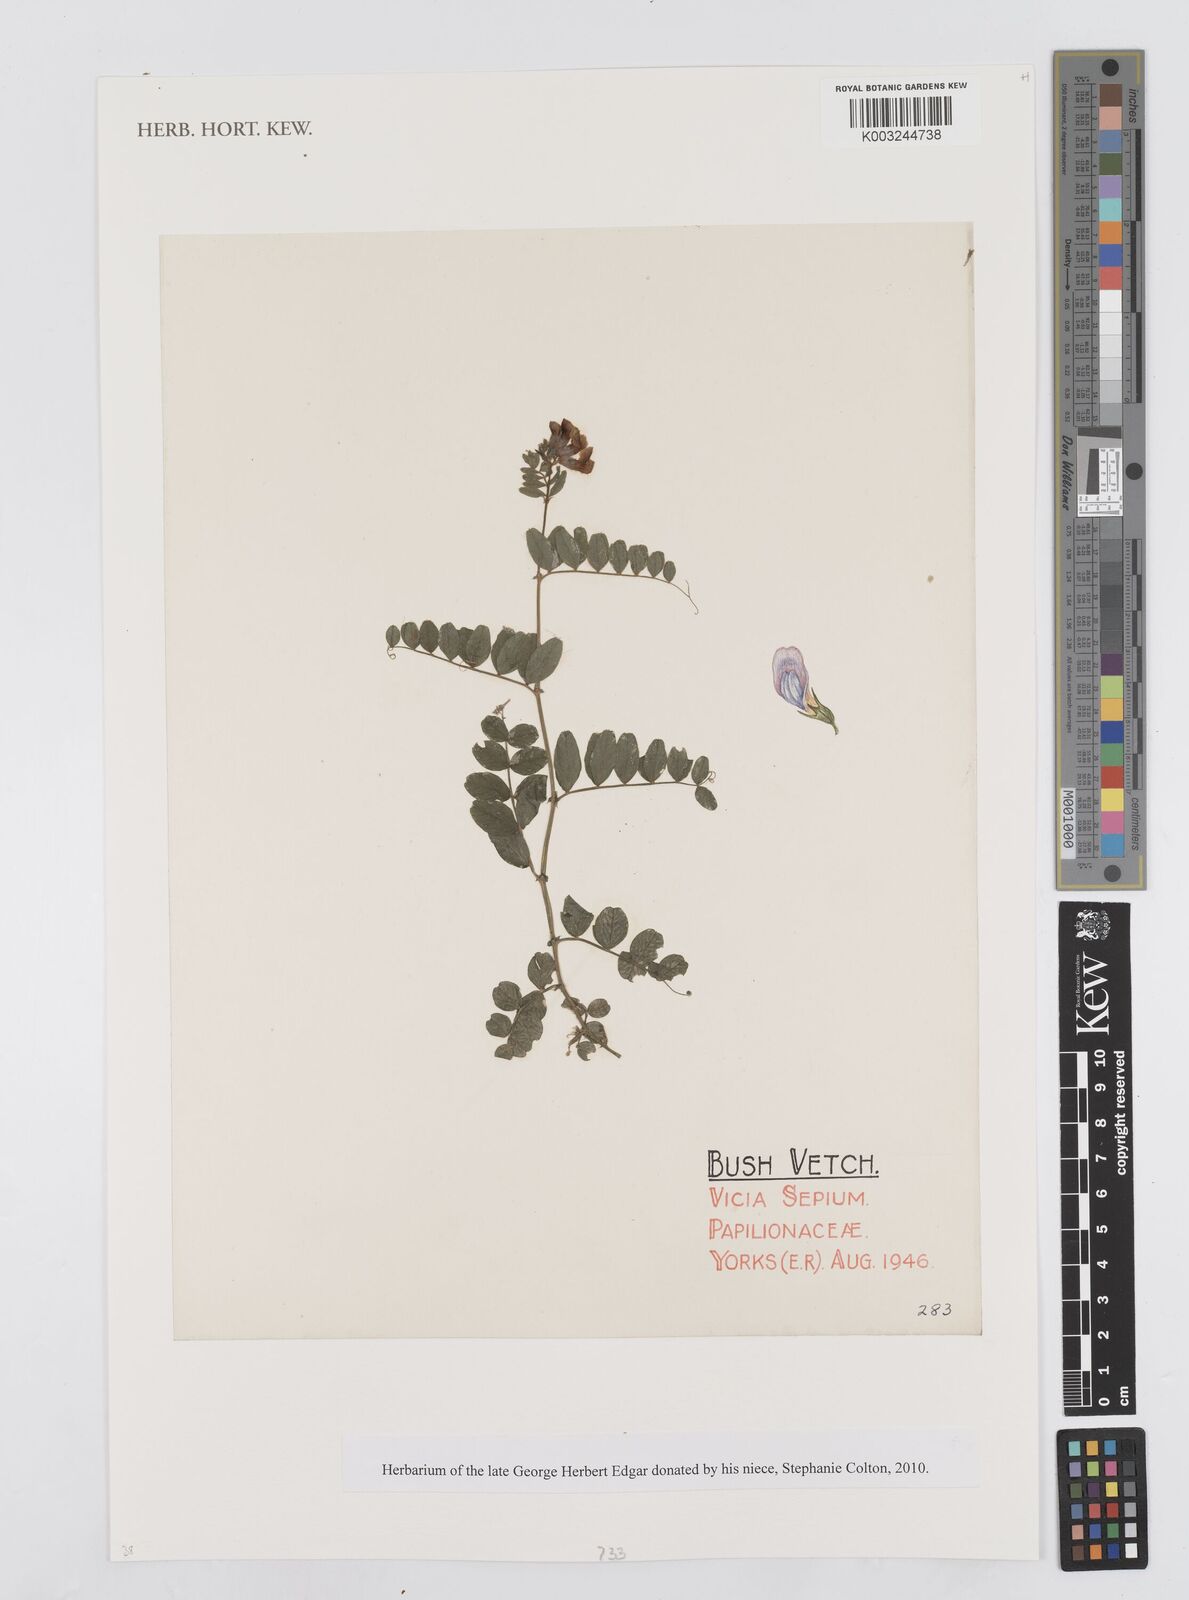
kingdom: Plantae
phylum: Tracheophyta
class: Magnoliopsida
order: Fabales
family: Fabaceae
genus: Vicia
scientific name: Vicia sepium
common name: Bush vetch
